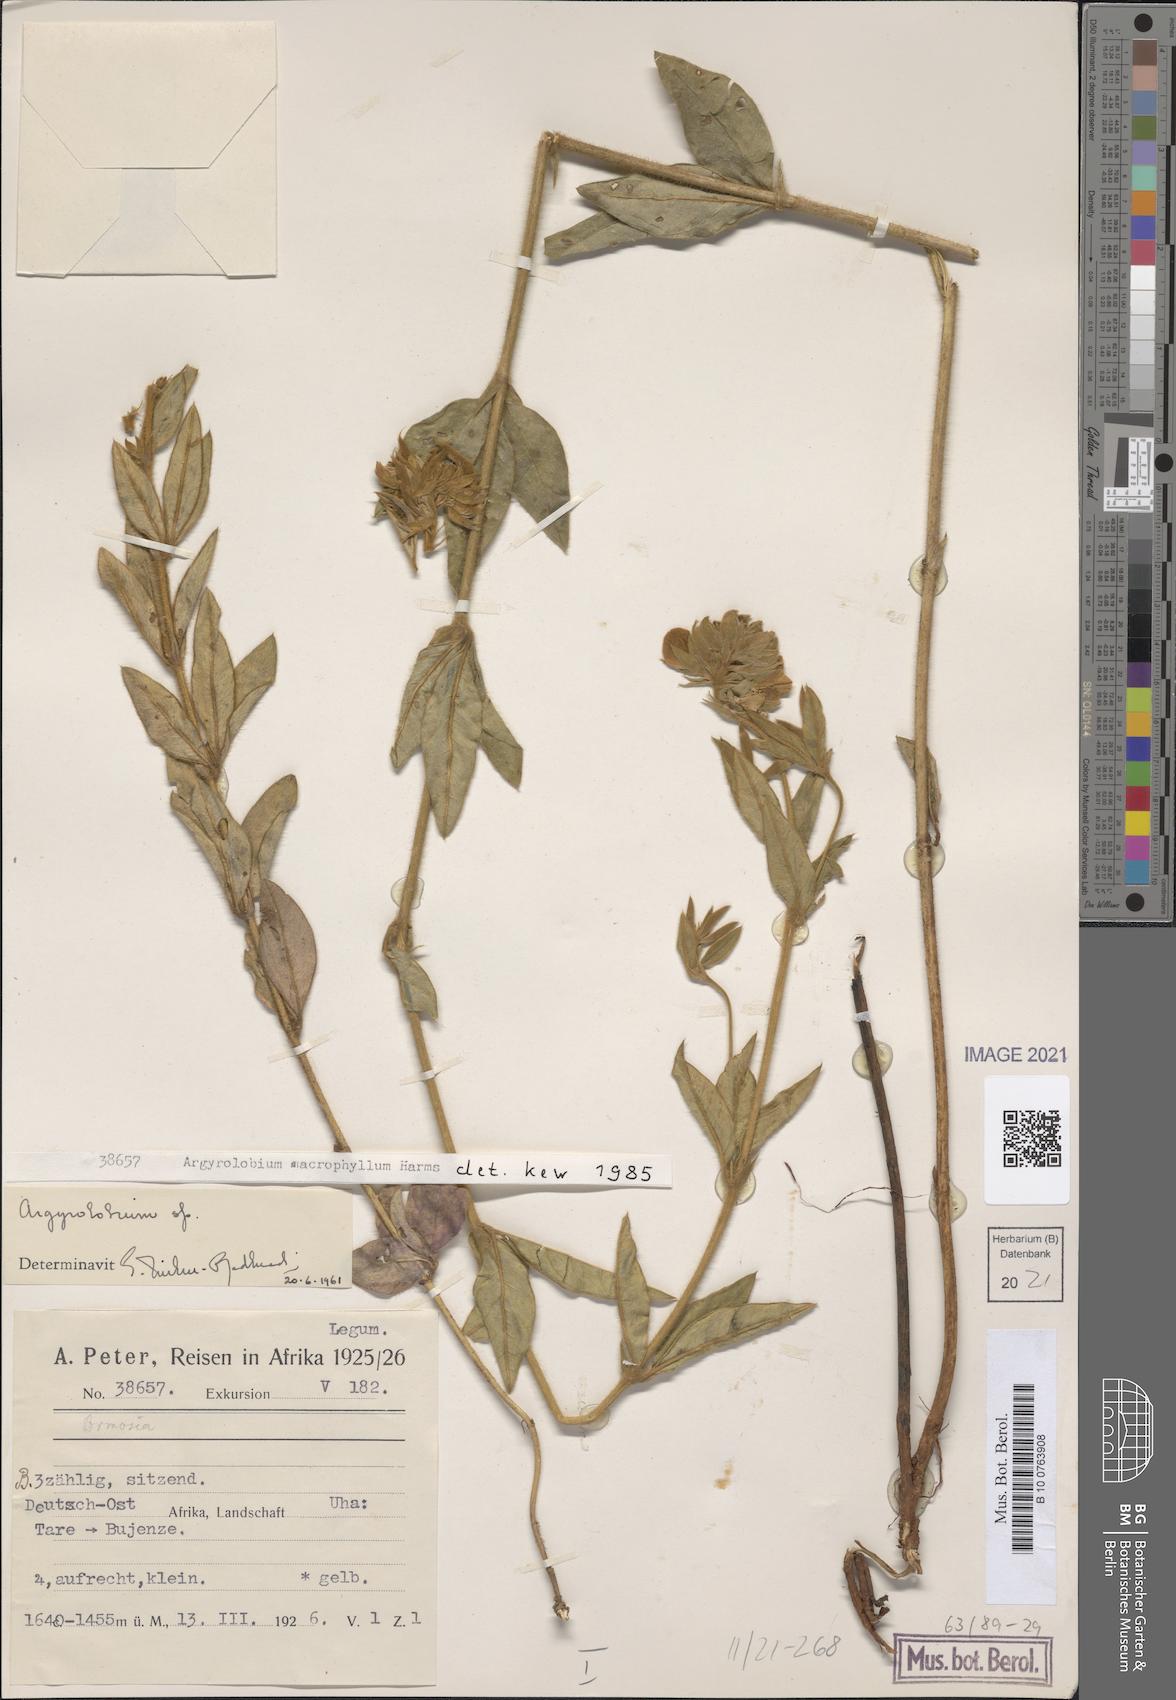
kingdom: Plantae
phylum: Tracheophyta
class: Magnoliopsida
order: Fabales
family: Fabaceae
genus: Argyrolobium
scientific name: Argyrolobium macrophyllum
